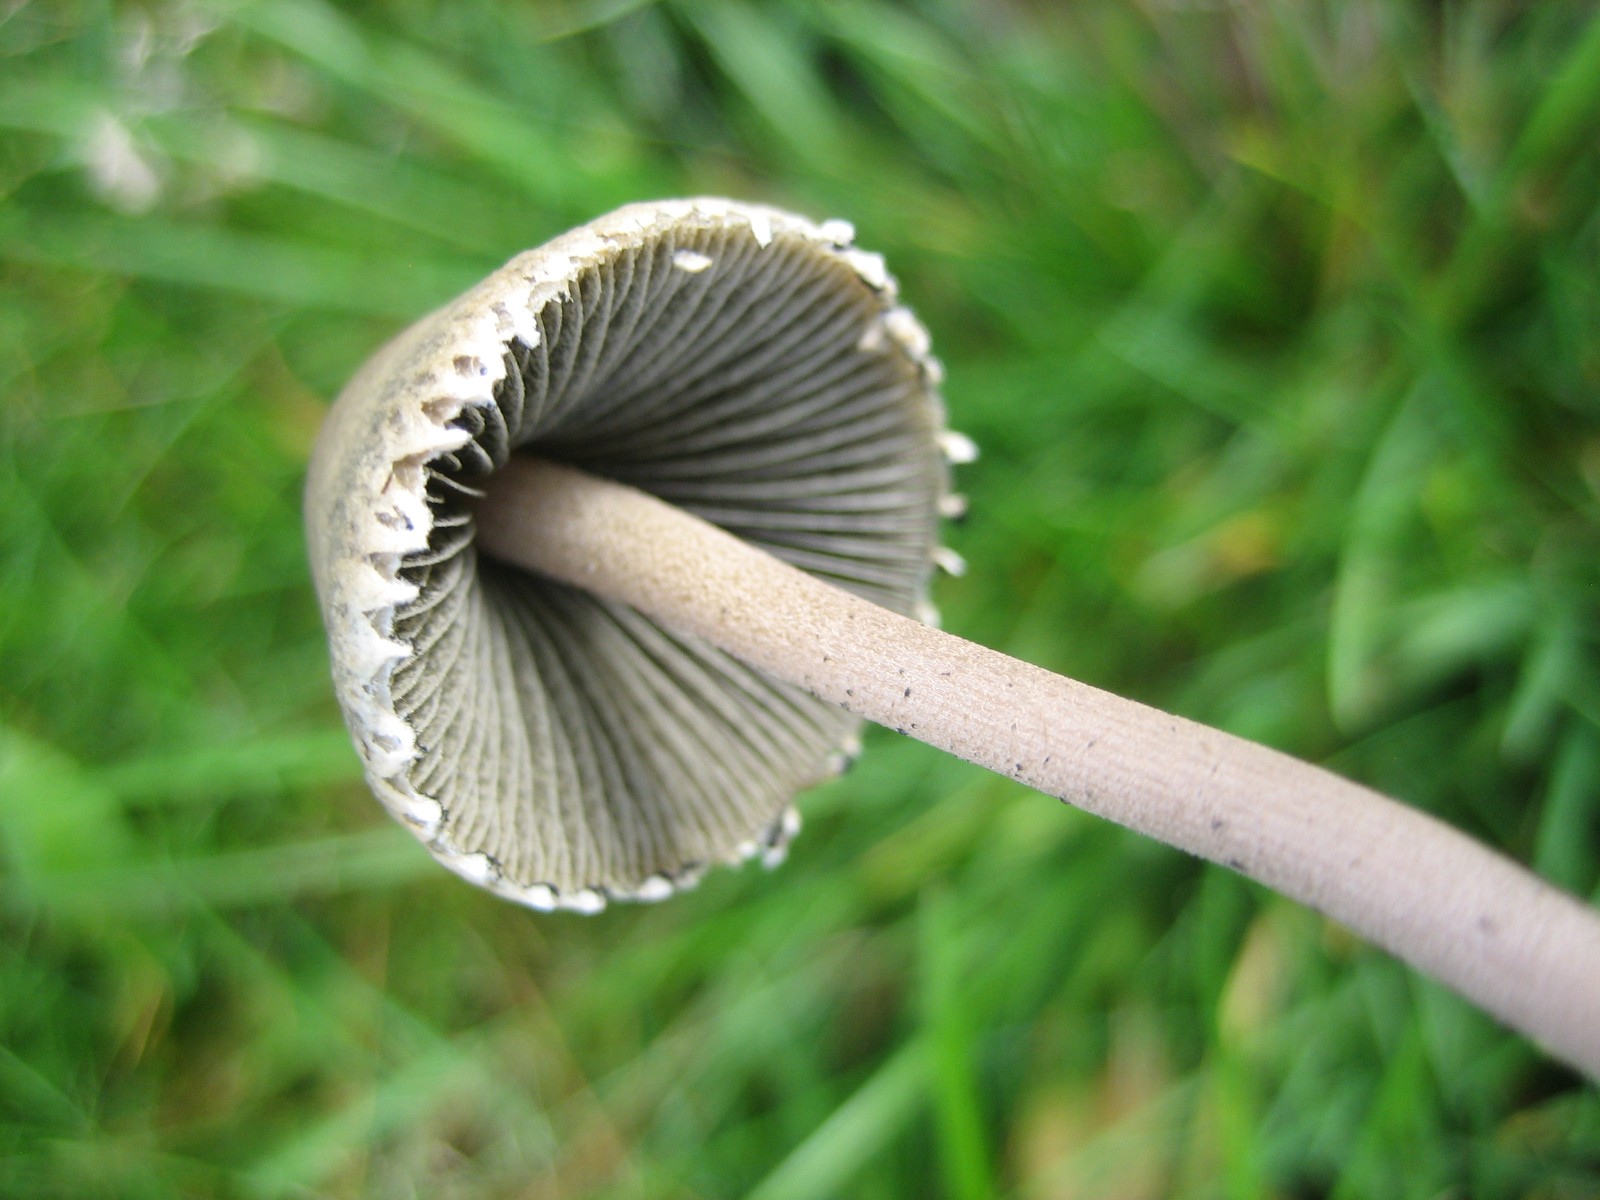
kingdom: Fungi
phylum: Basidiomycota
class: Agaricomycetes
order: Agaricales
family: Bolbitiaceae
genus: Panaeolus
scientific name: Panaeolus papilionaceus
